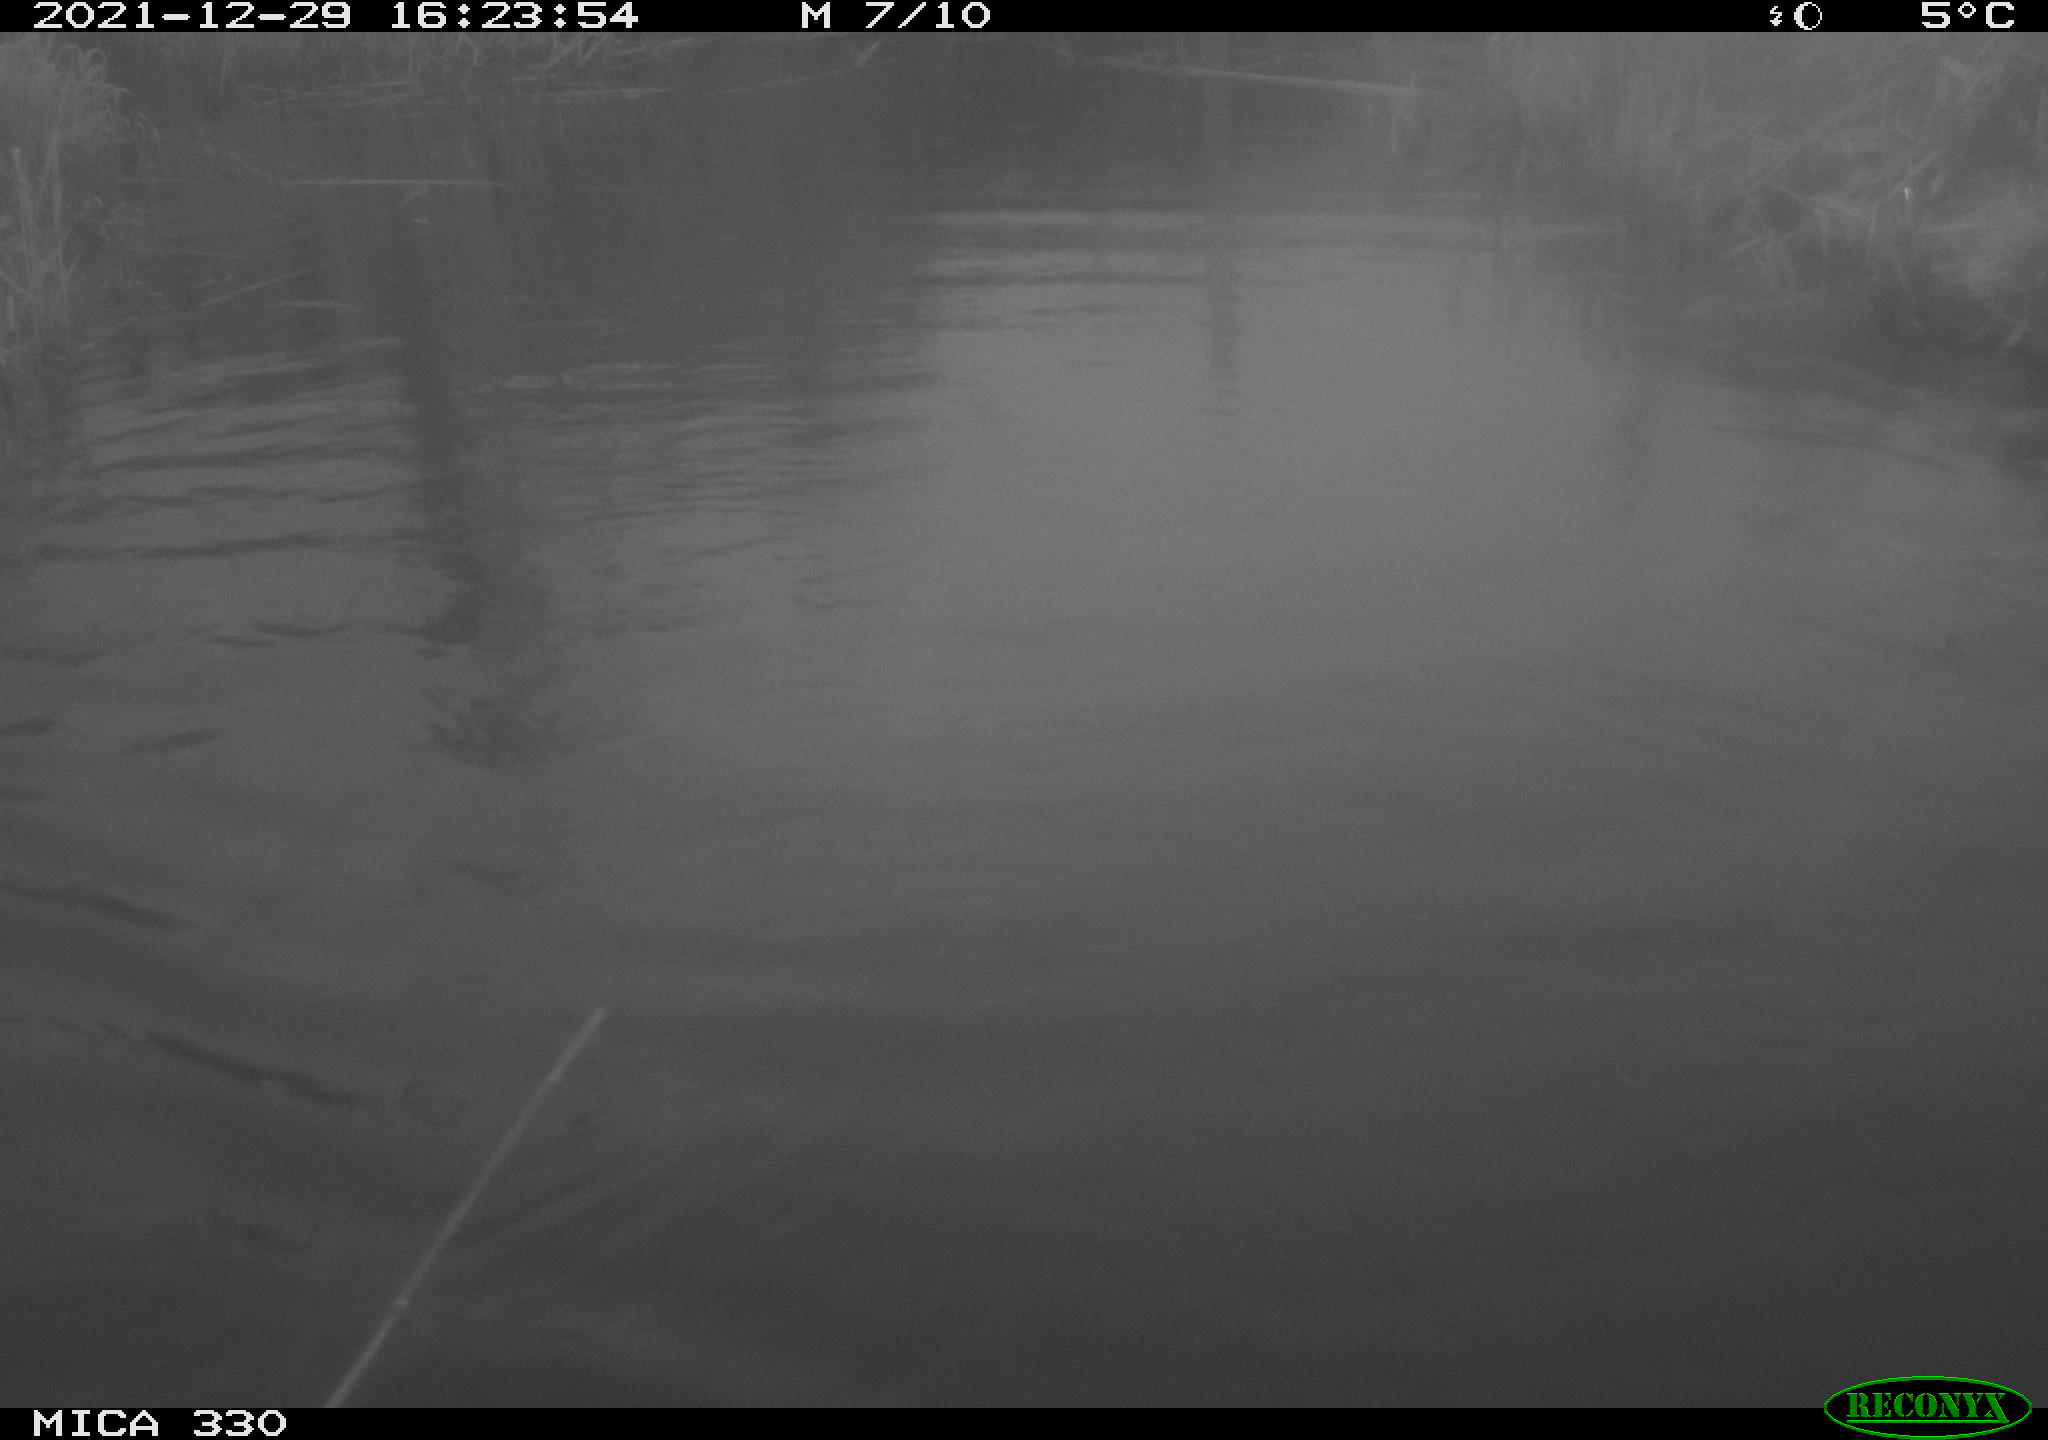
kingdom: Animalia
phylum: Chordata
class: Aves
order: Anseriformes
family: Anatidae
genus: Anas
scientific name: Anas platyrhynchos
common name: Mallard
